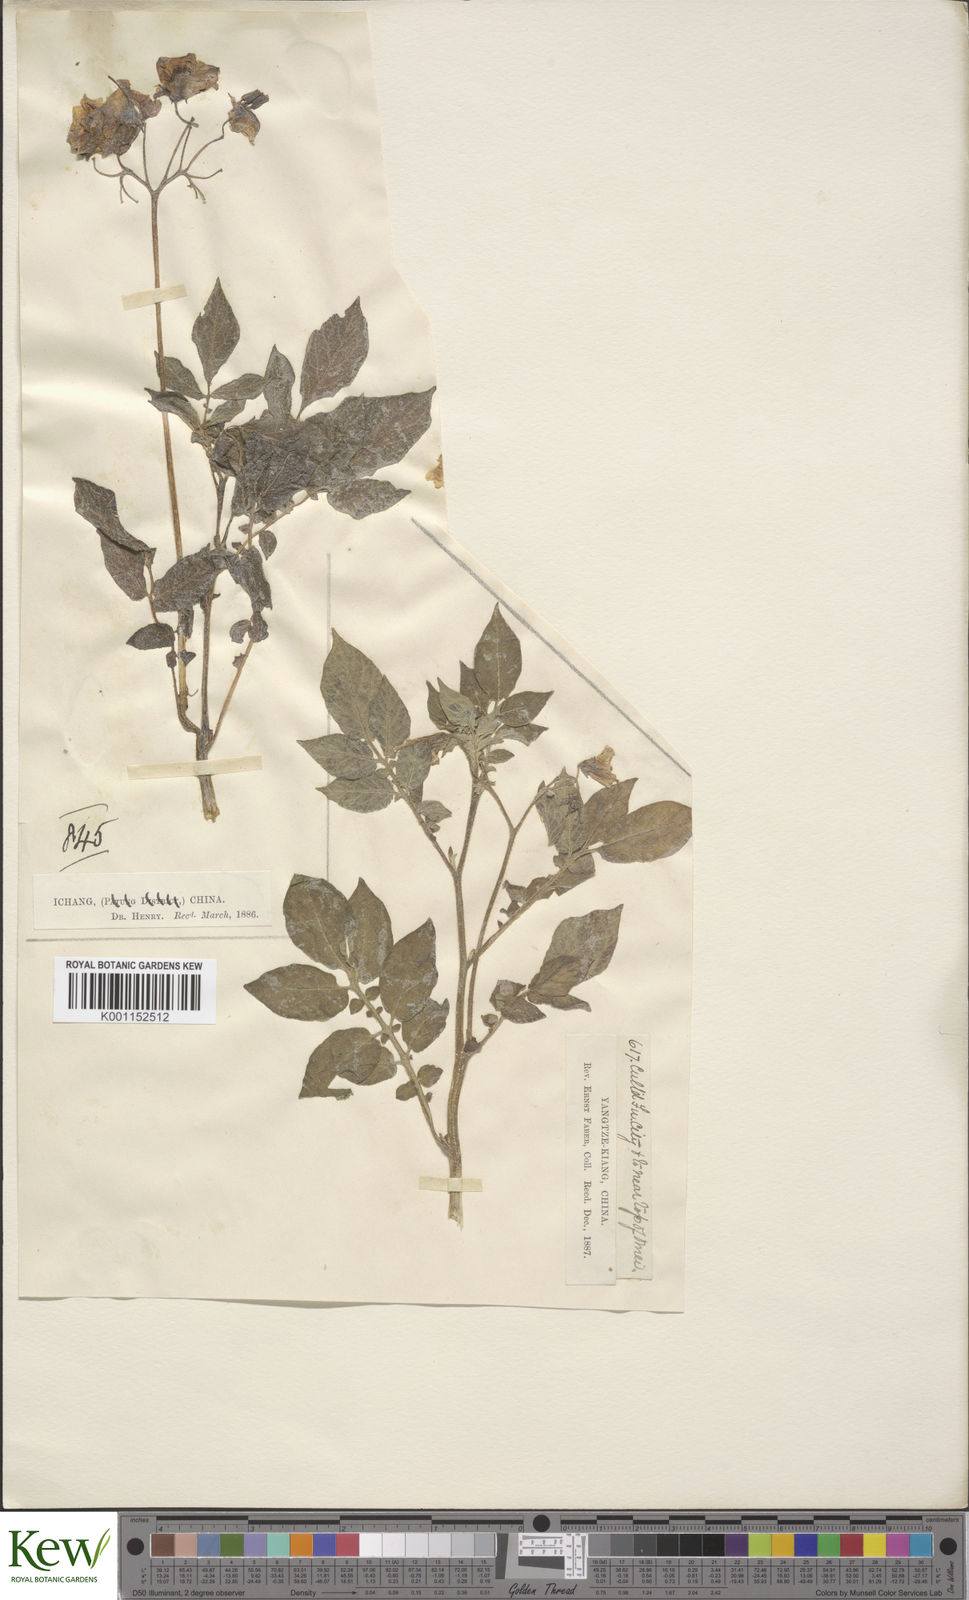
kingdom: Plantae
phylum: Tracheophyta
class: Magnoliopsida
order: Solanales
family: Solanaceae
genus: Solanum
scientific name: Solanum tuberosum
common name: Potato
